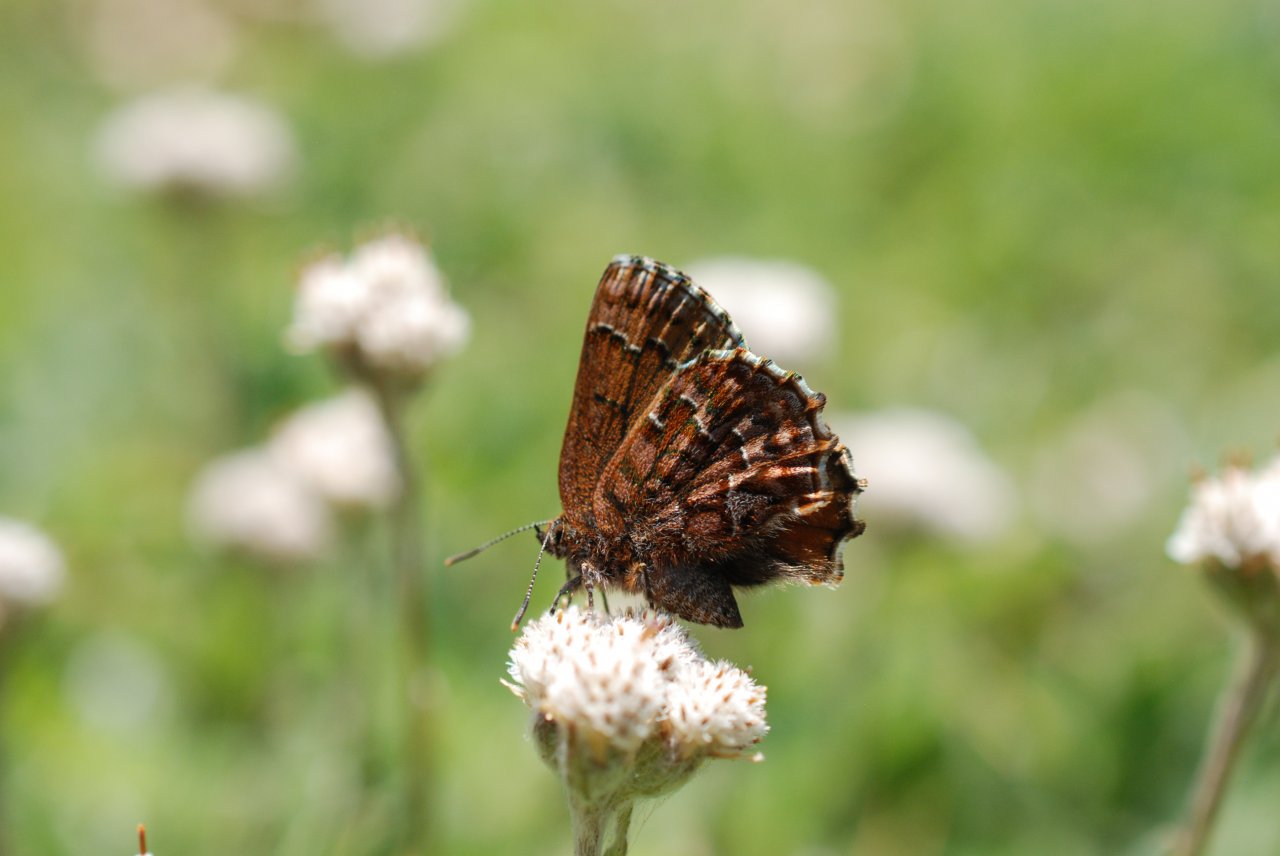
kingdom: Animalia
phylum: Arthropoda
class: Insecta
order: Lepidoptera
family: Lycaenidae
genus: Incisalia
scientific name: Incisalia niphon
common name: Eastern Pine Elfin
